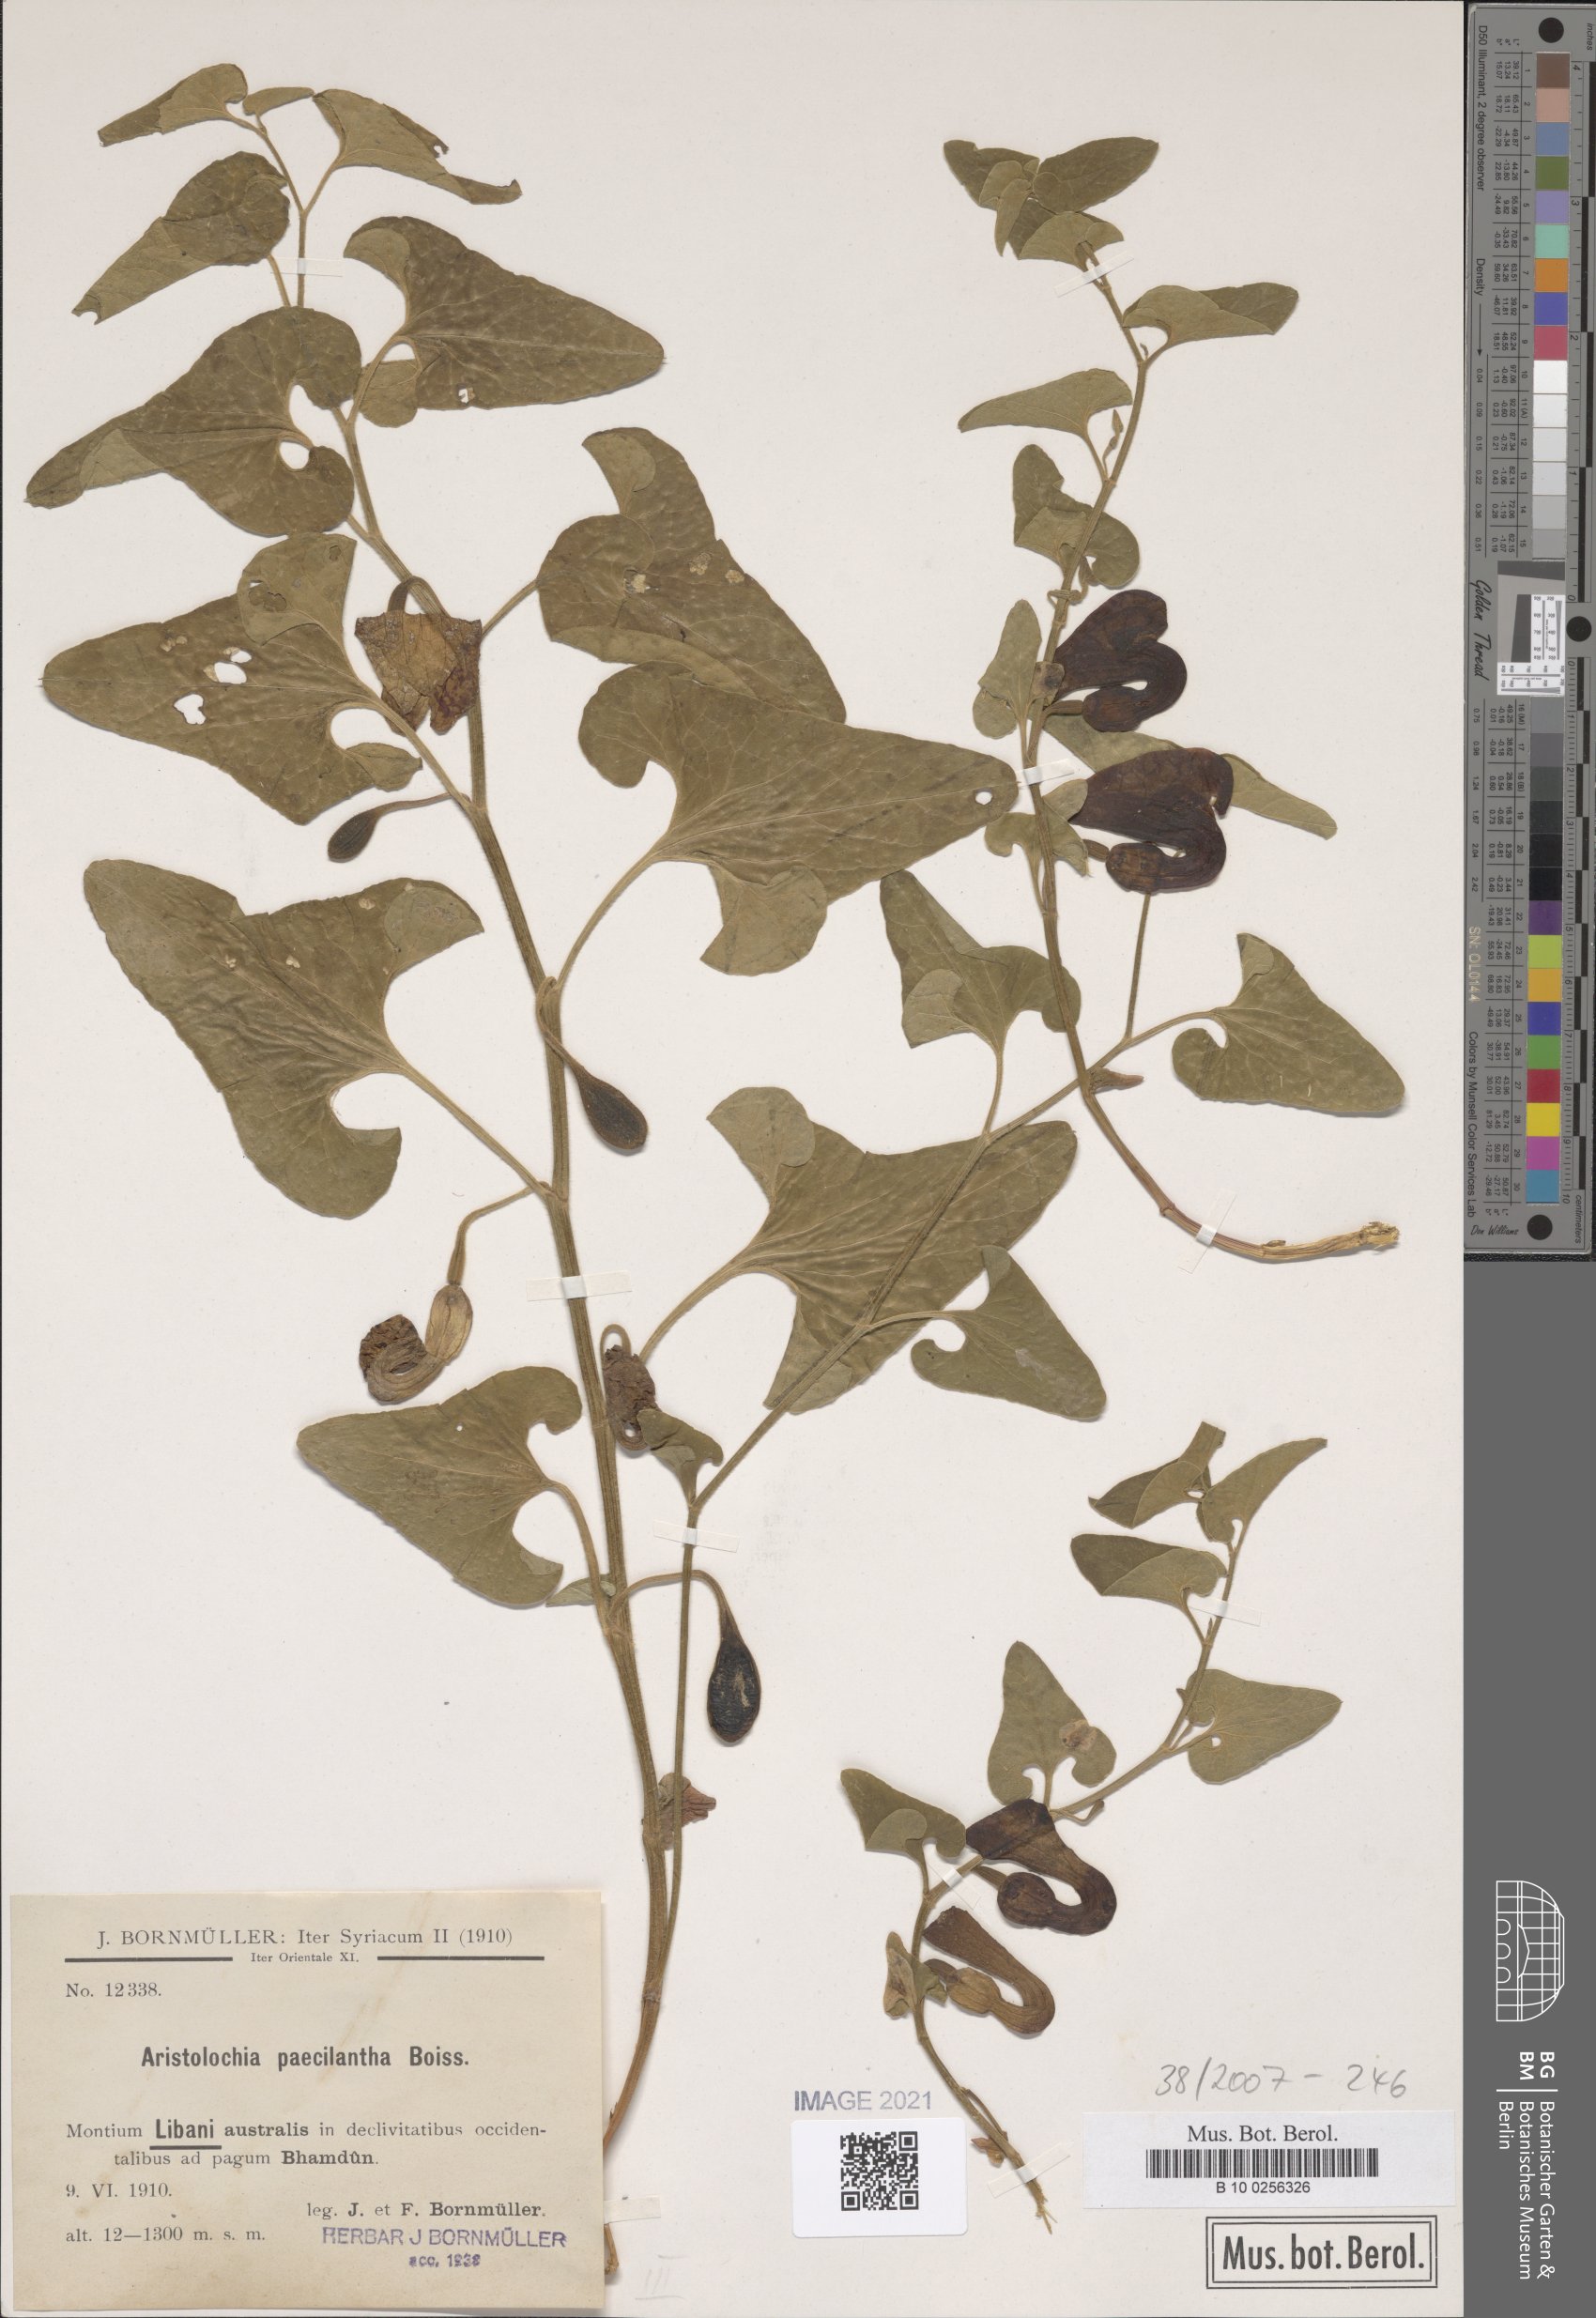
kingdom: Plantae
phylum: Tracheophyta
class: Magnoliopsida
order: Piperales
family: Aristolochiaceae
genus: Aristolochia
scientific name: Aristolochia paecilantha
